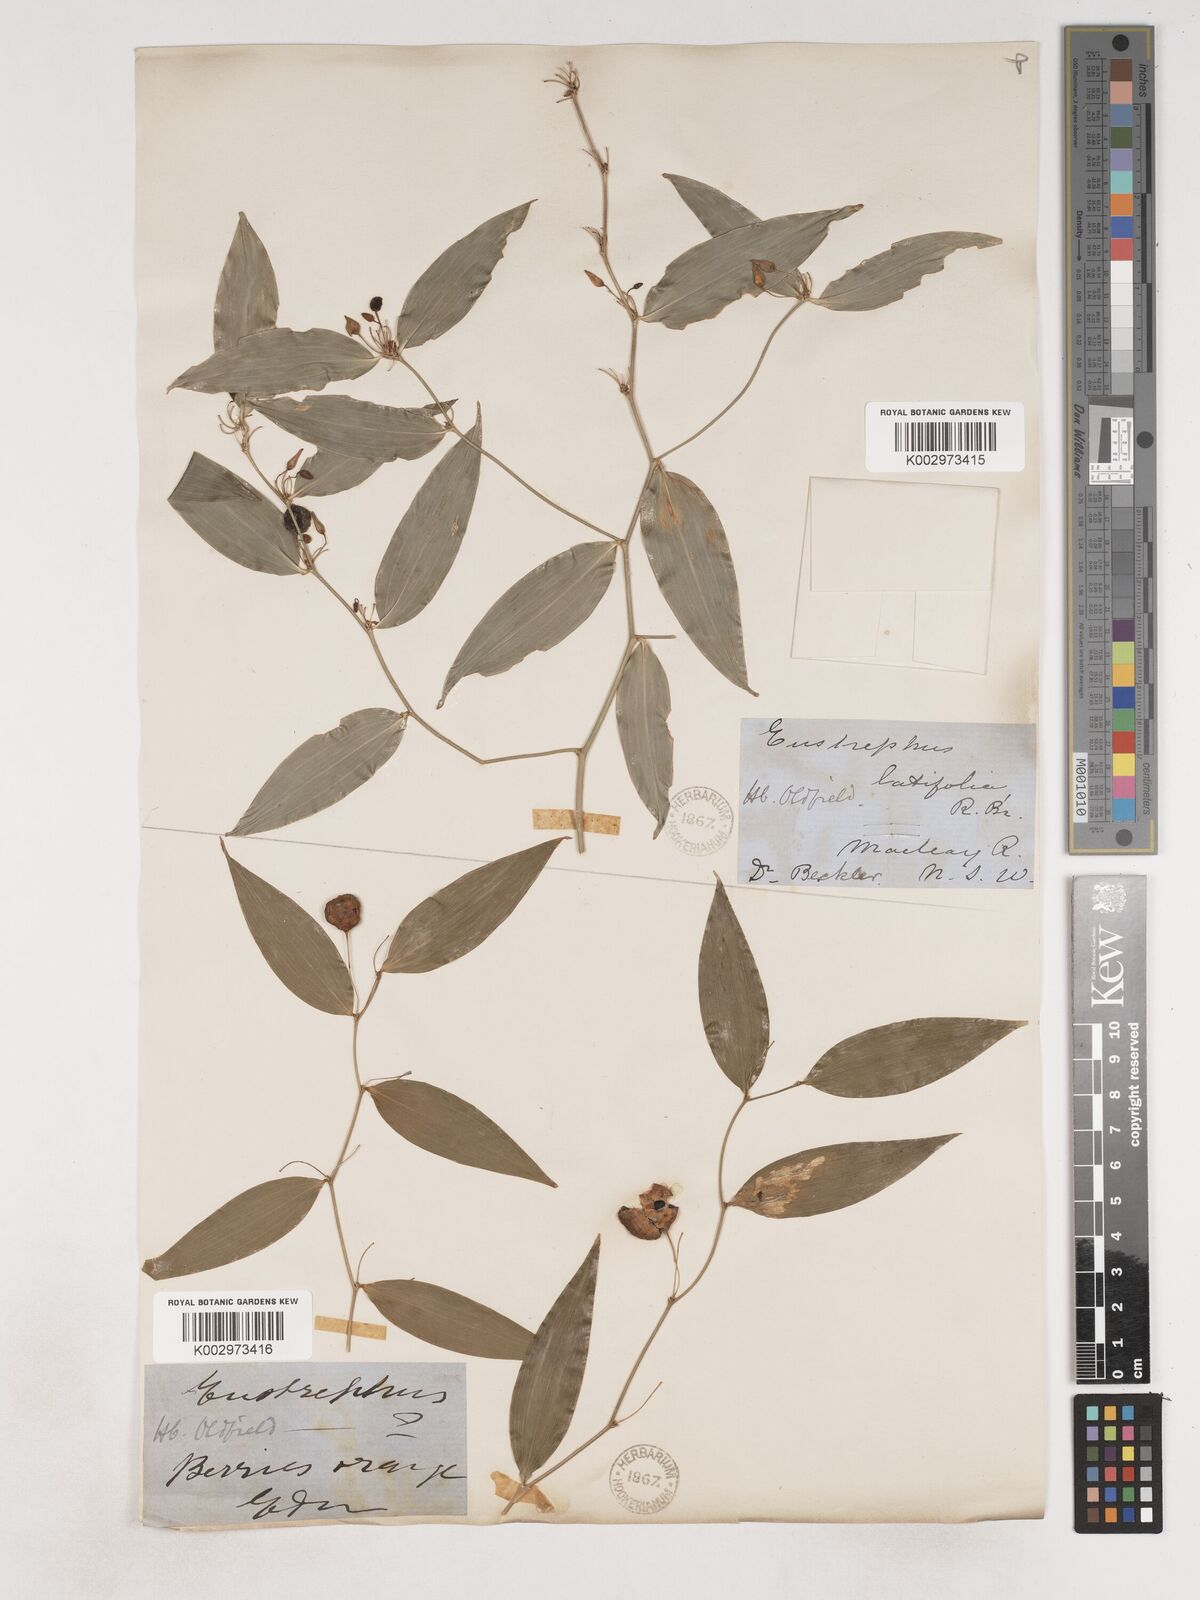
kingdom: Plantae
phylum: Tracheophyta
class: Liliopsida
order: Asparagales
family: Asparagaceae
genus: Eustrephus
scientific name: Eustrephus latifolius
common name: Orangevine
